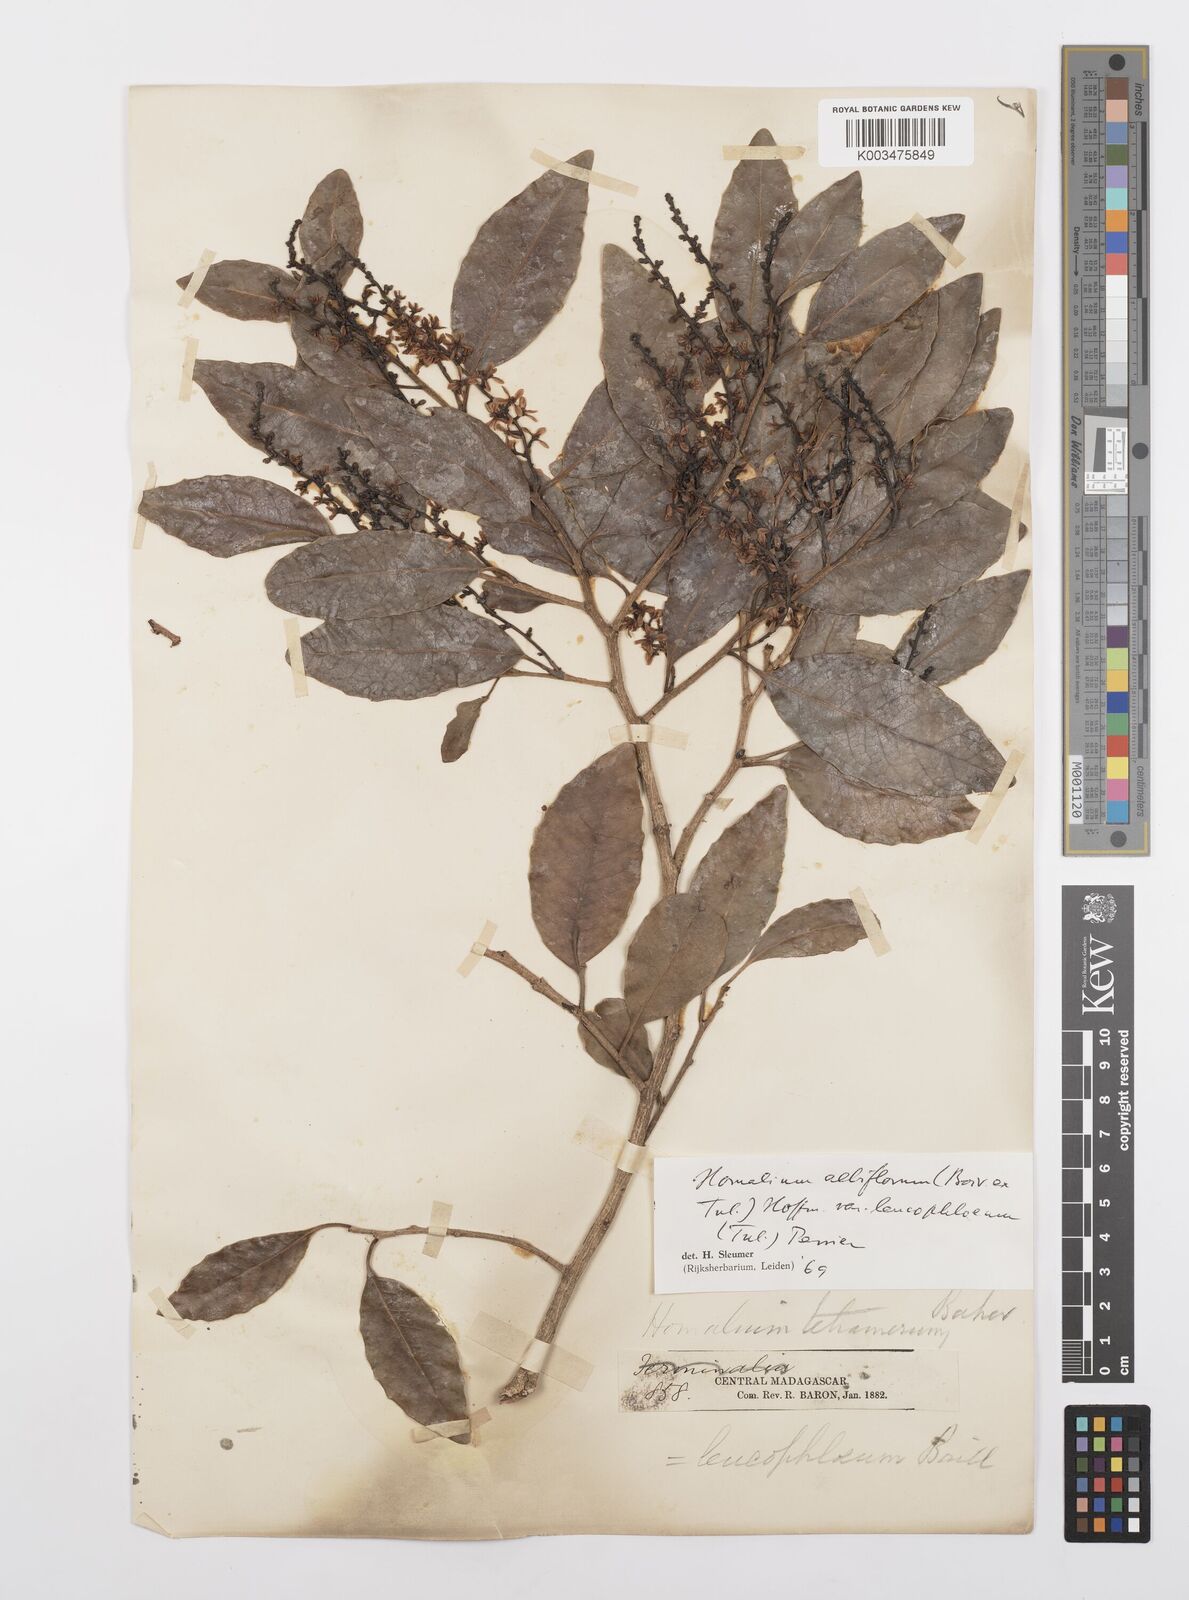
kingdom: Plantae
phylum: Tracheophyta
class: Magnoliopsida
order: Malpighiales
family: Salicaceae
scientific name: Salicaceae
